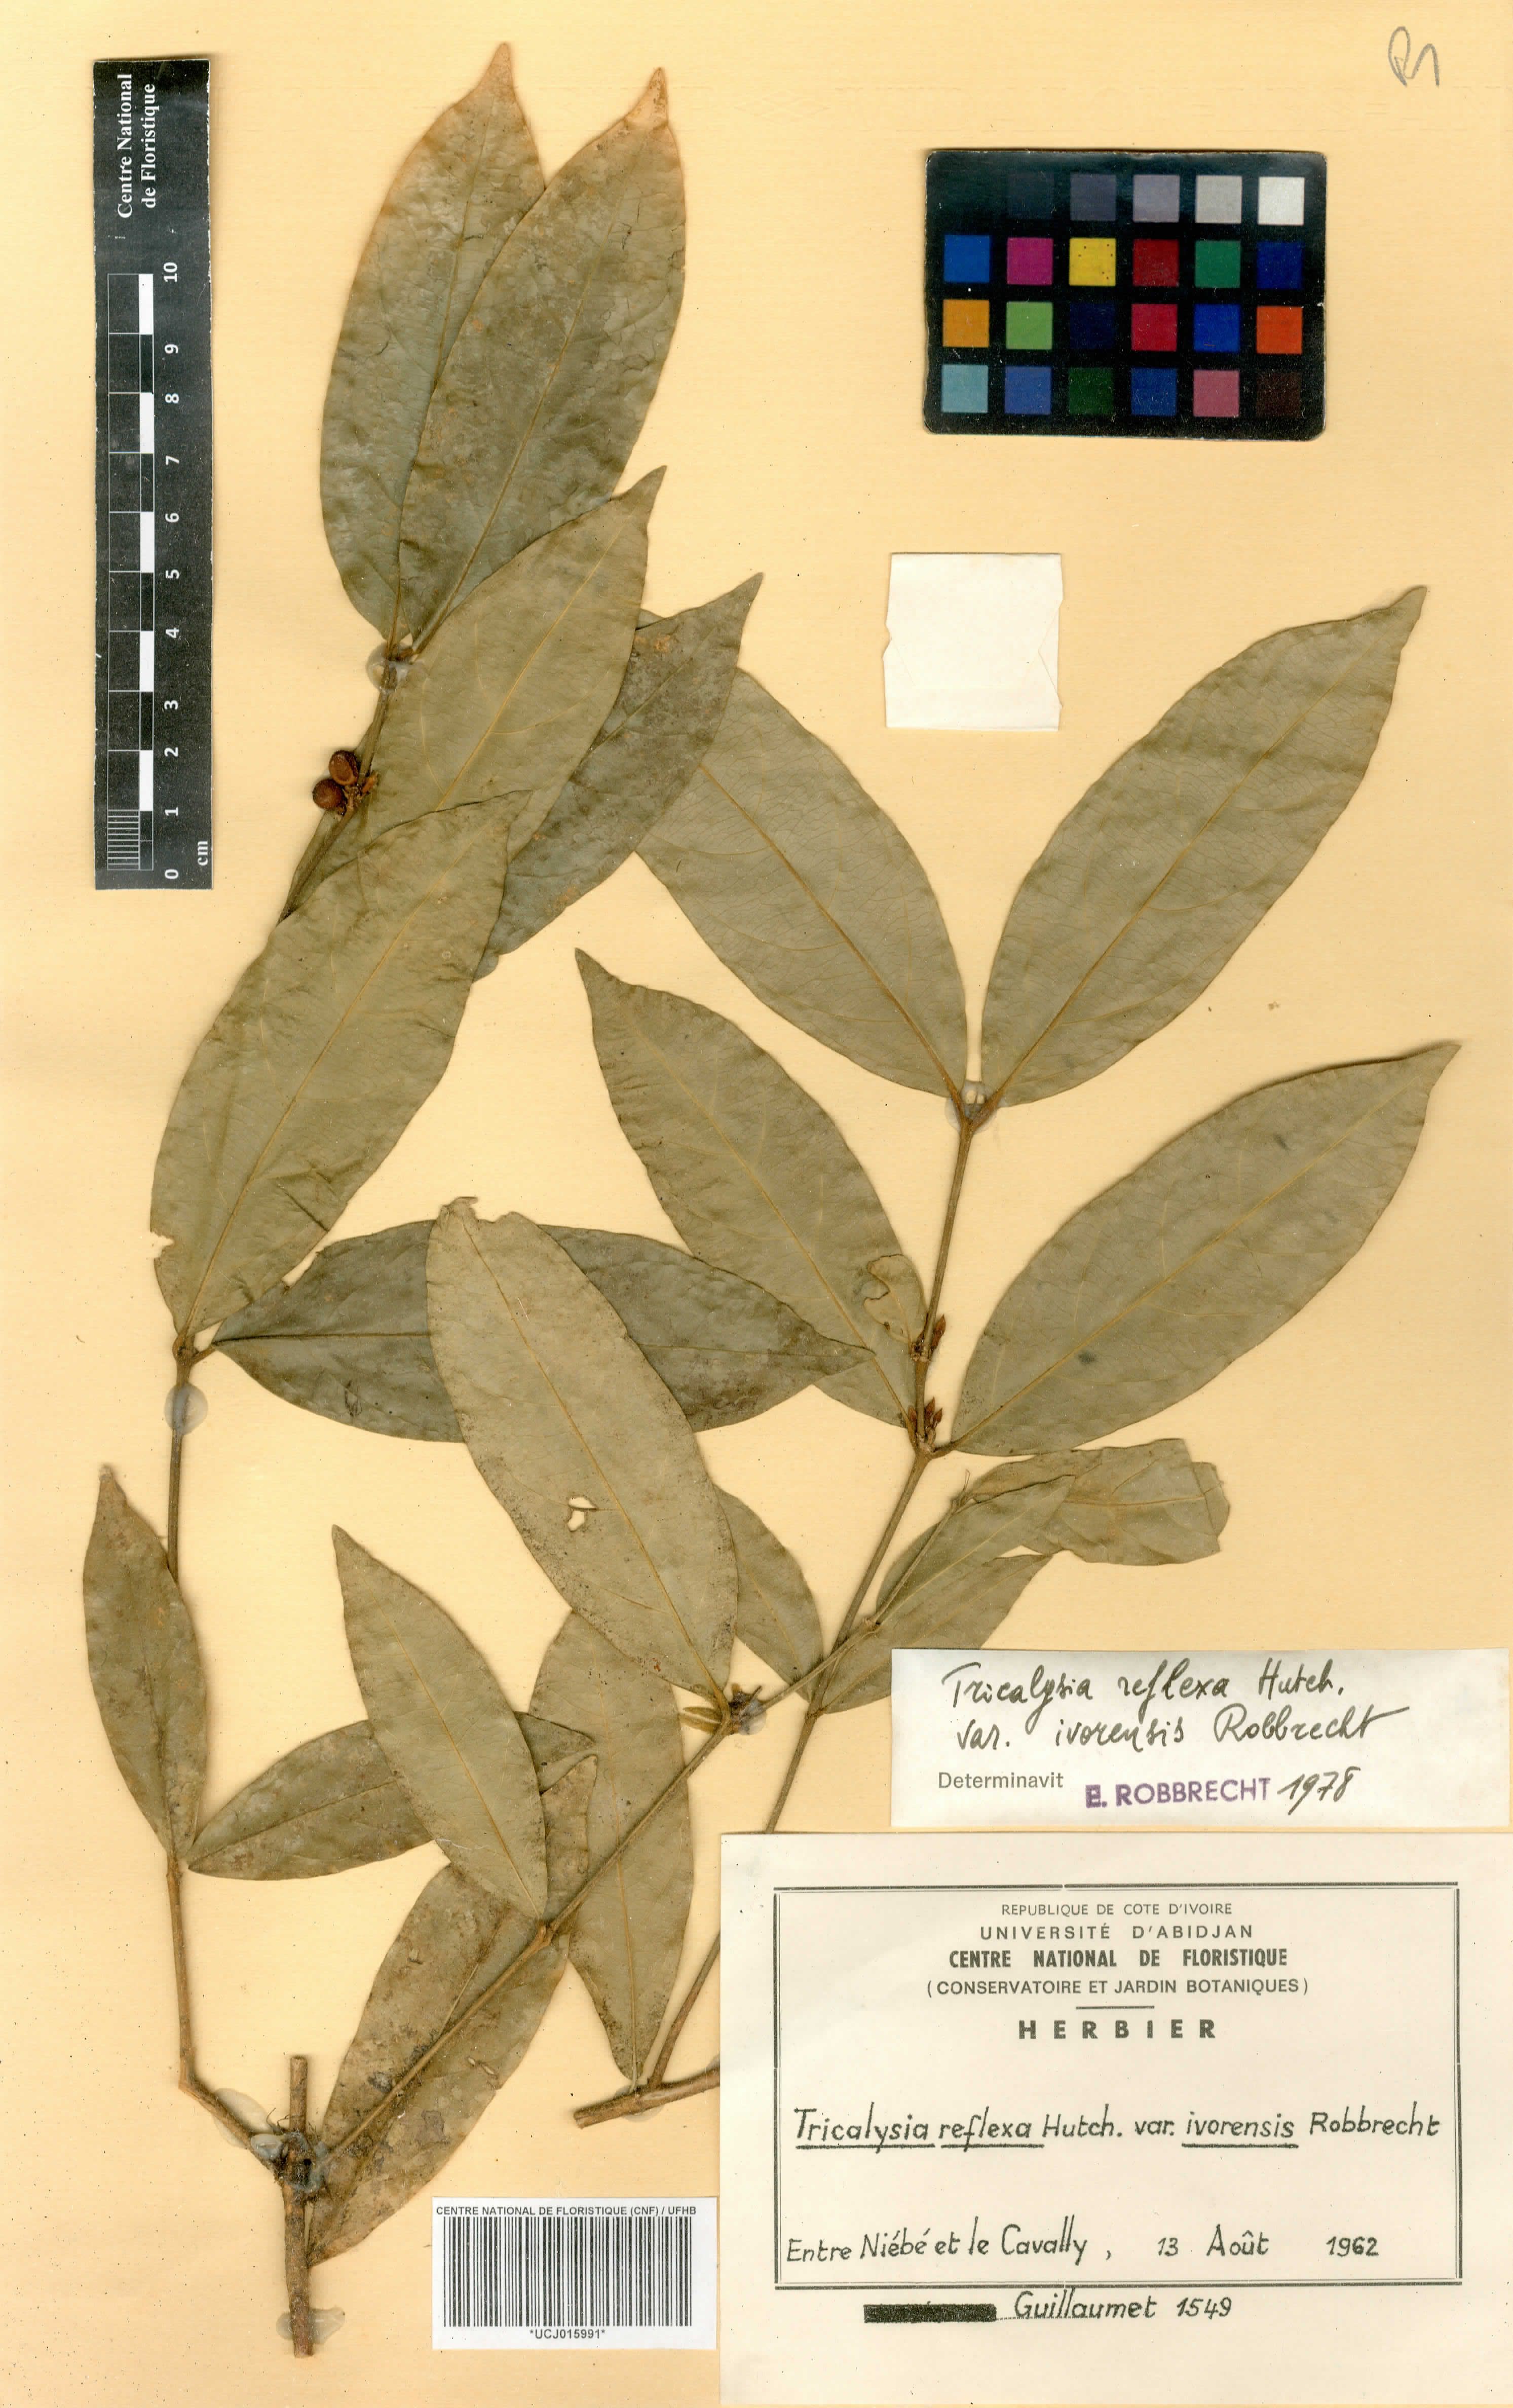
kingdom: Plantae
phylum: Tracheophyta
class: Magnoliopsida
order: Gentianales
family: Rubiaceae
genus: Empogona
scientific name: Empogona reflexa
